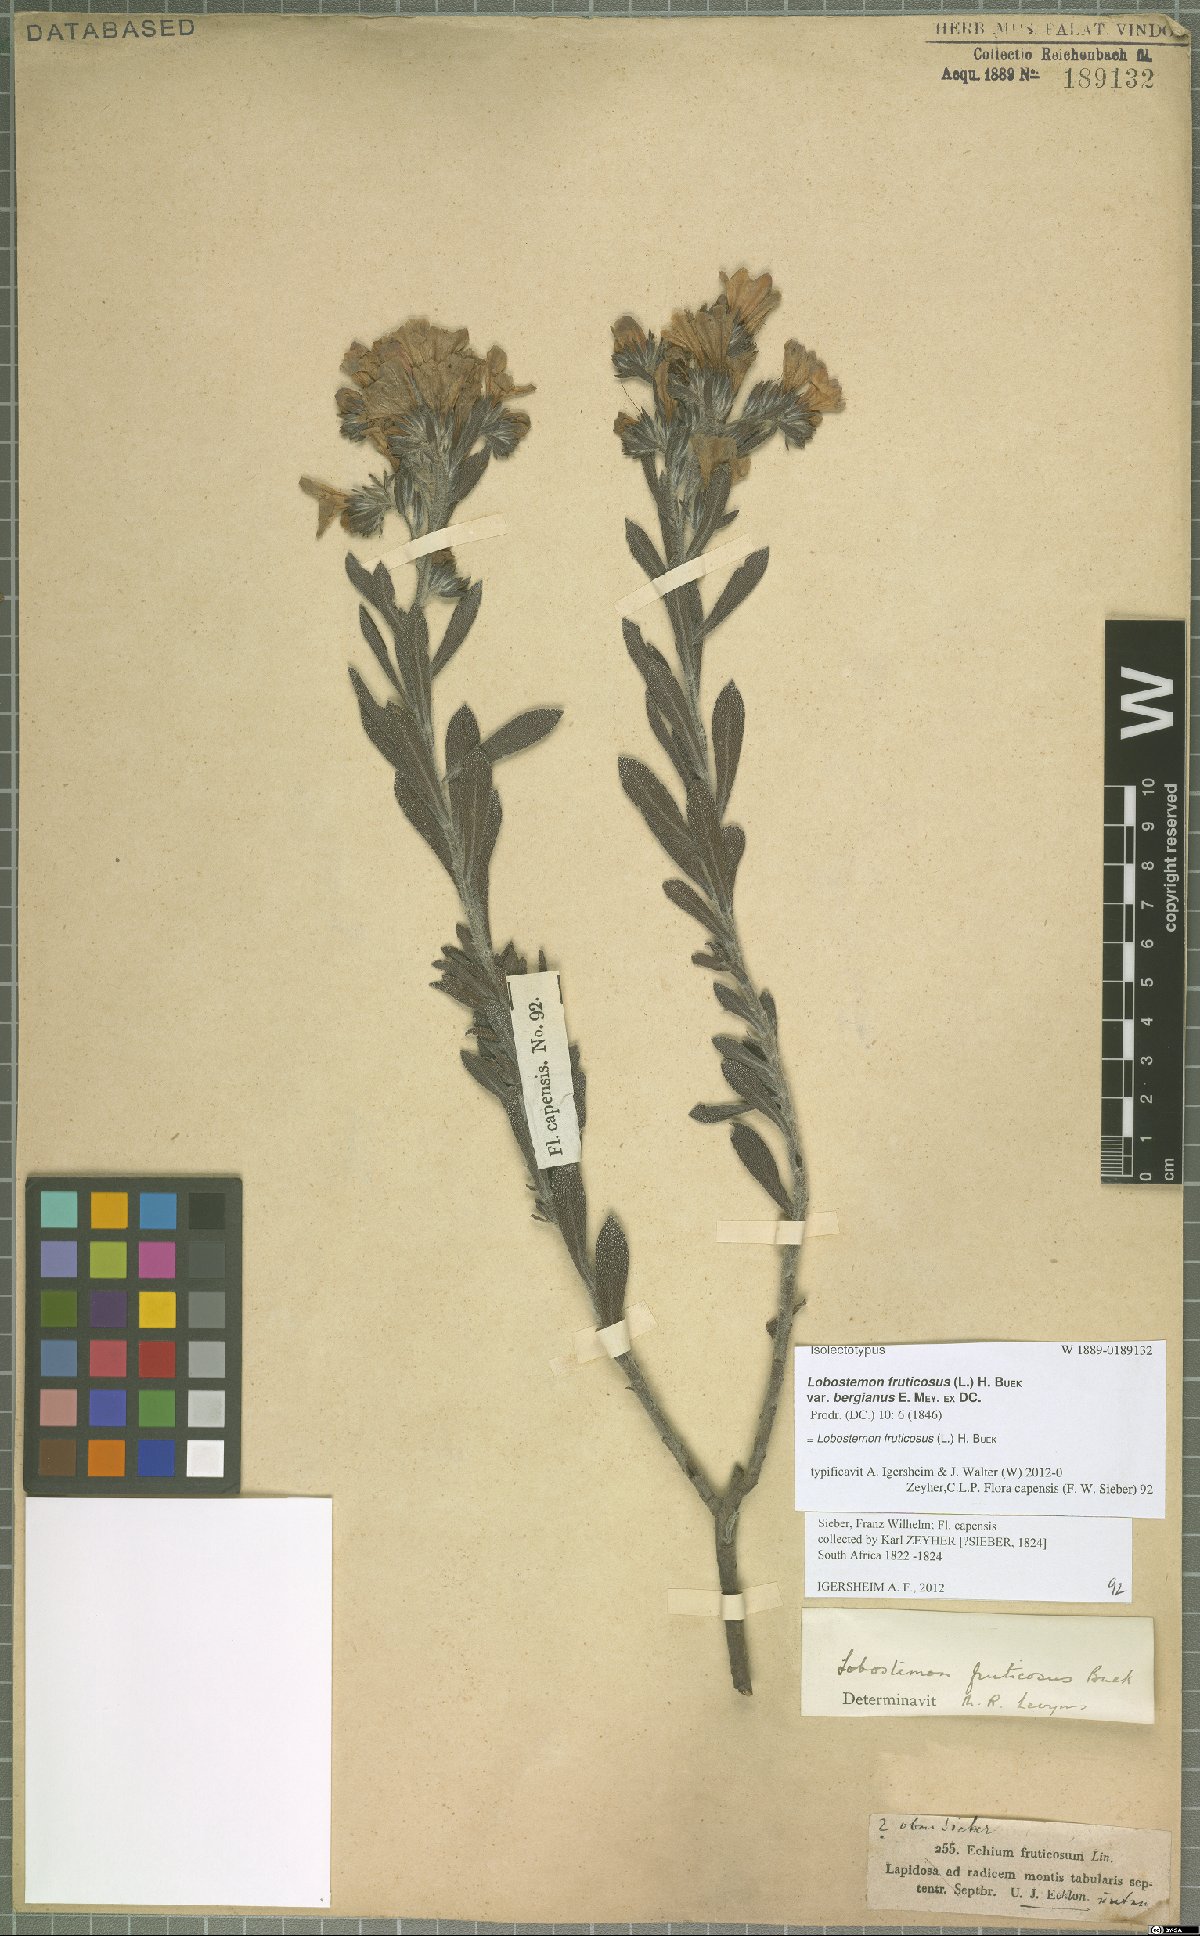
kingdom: Plantae
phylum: Tracheophyta
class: Magnoliopsida
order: Boraginales
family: Boraginaceae
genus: Lobostemon
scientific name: Lobostemon fruticosus
